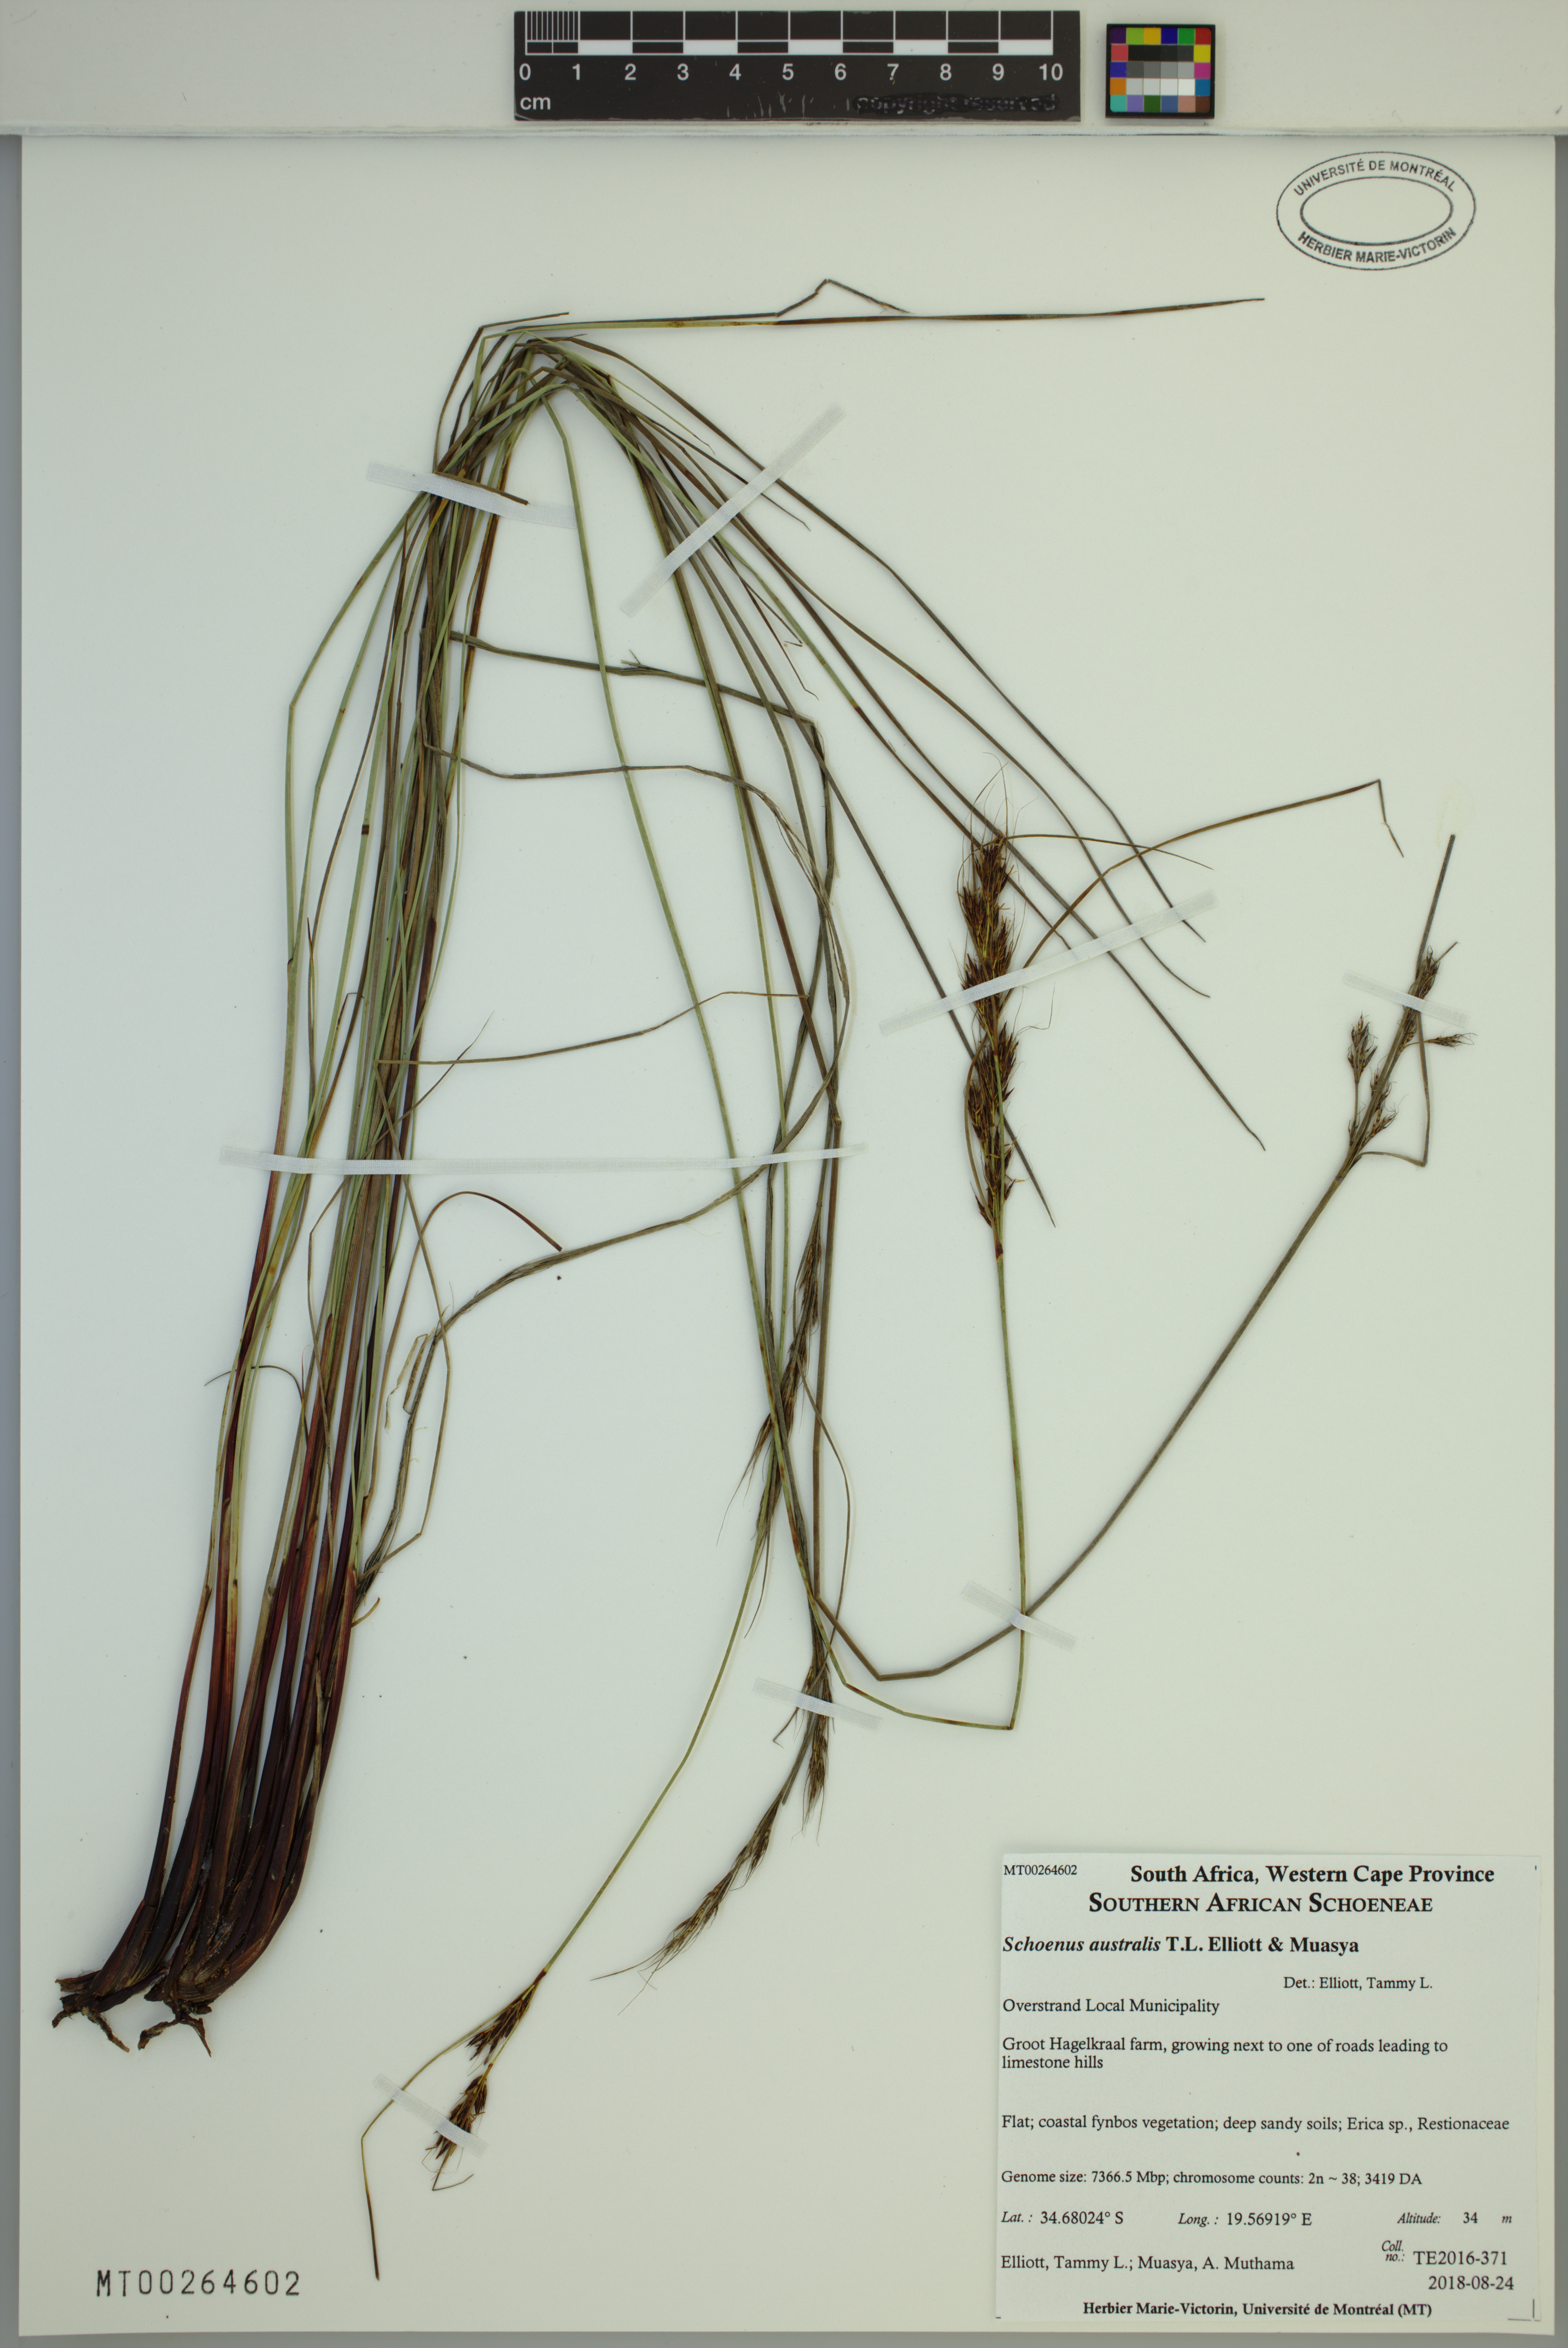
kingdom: Plantae
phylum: Tracheophyta
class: Liliopsida
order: Poales
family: Cyperaceae
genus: Schoenus
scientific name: Schoenus australis
